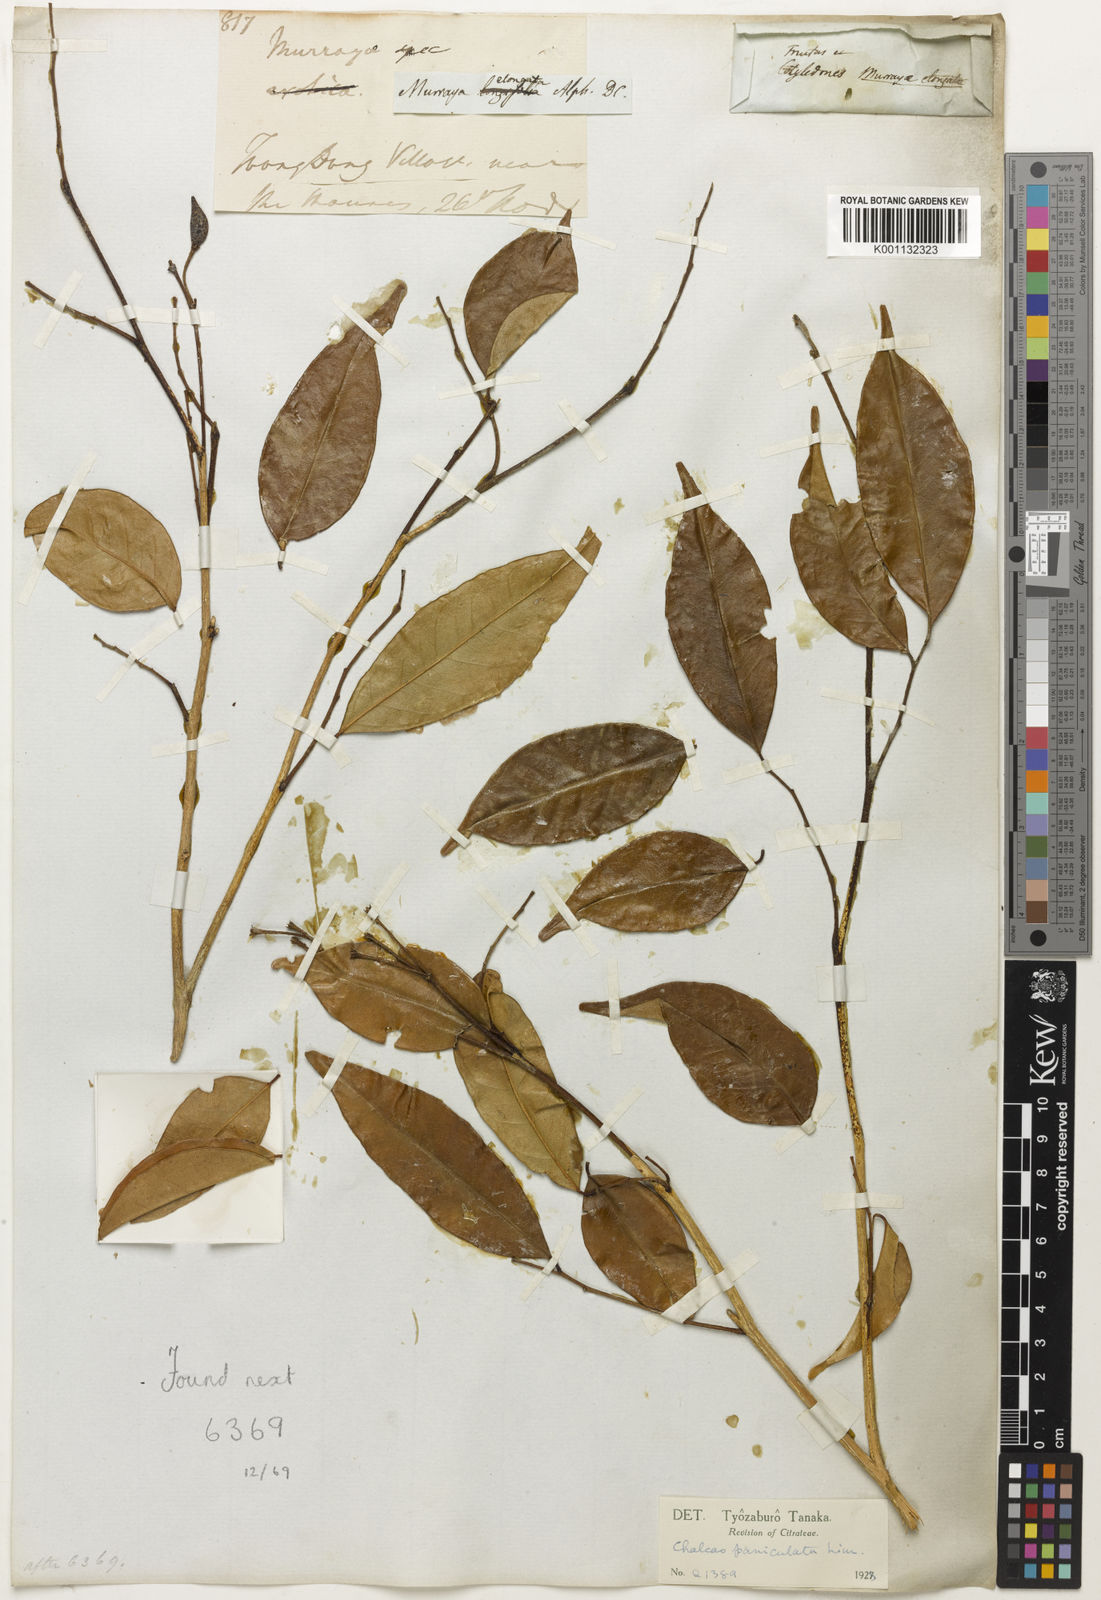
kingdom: Plantae
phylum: Tracheophyta
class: Magnoliopsida
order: Sapindales
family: Rutaceae
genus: Murraya
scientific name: Murraya
